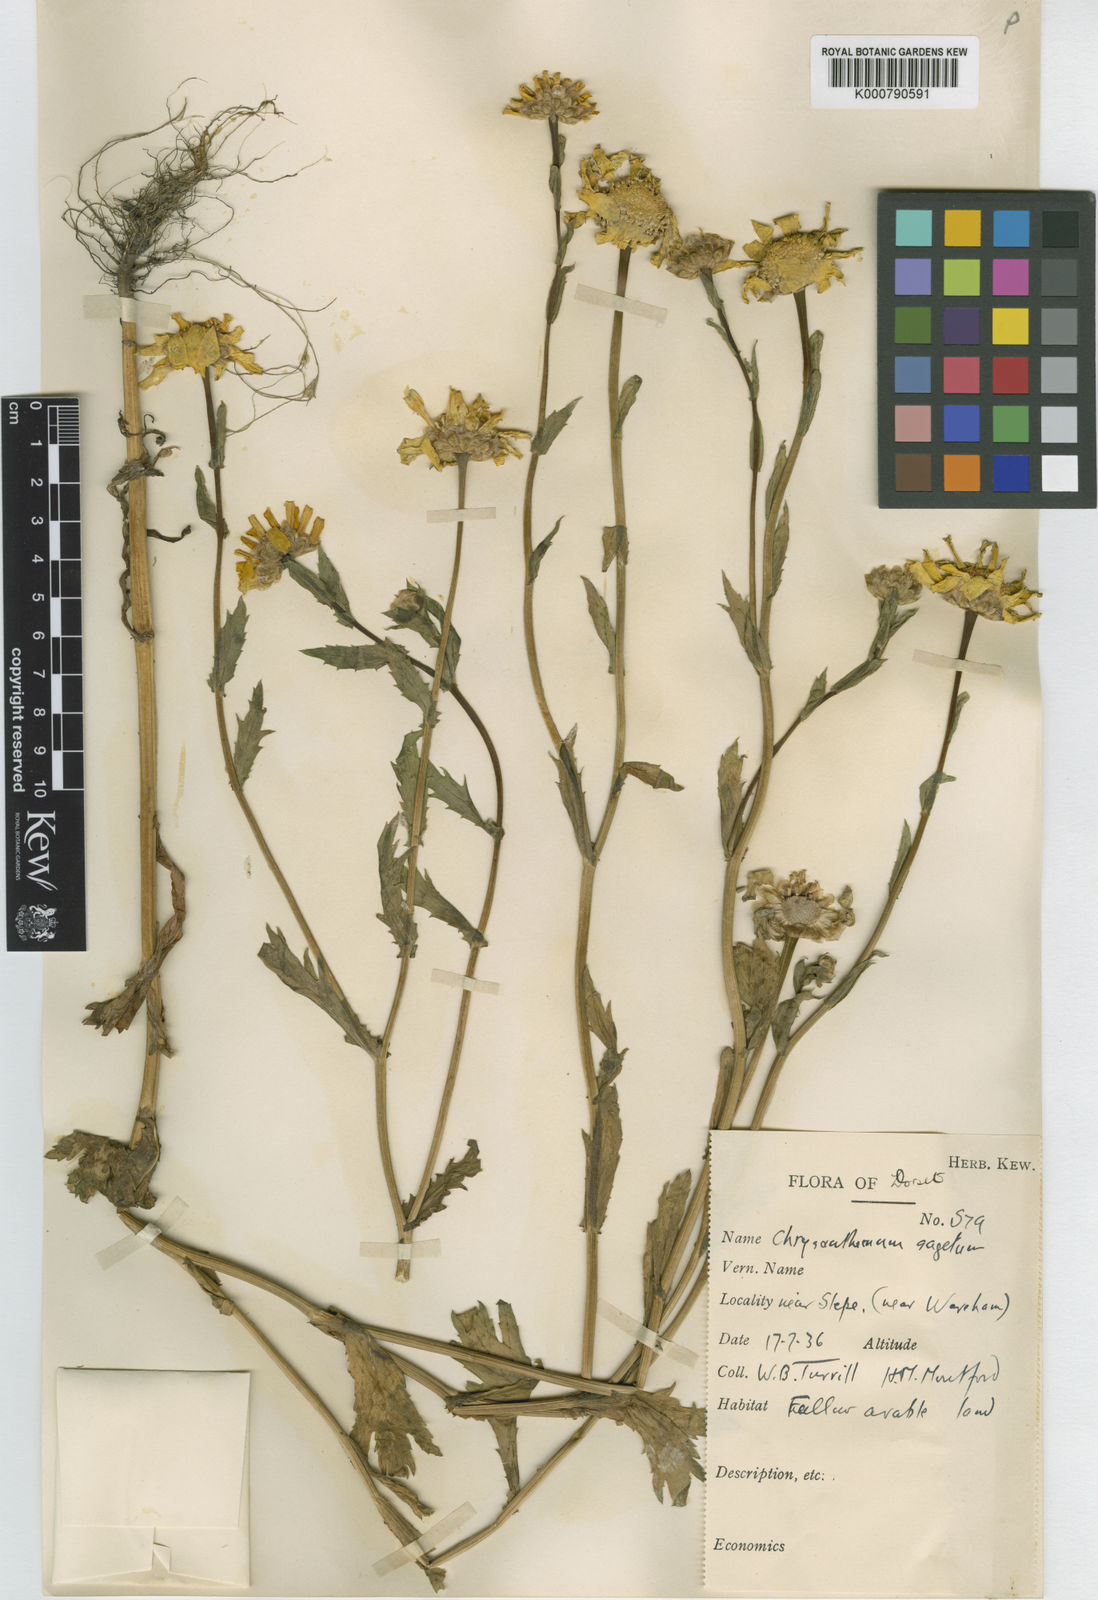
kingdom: Plantae
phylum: Tracheophyta
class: Magnoliopsida
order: Asterales
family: Asteraceae
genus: Glebionis
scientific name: Glebionis
